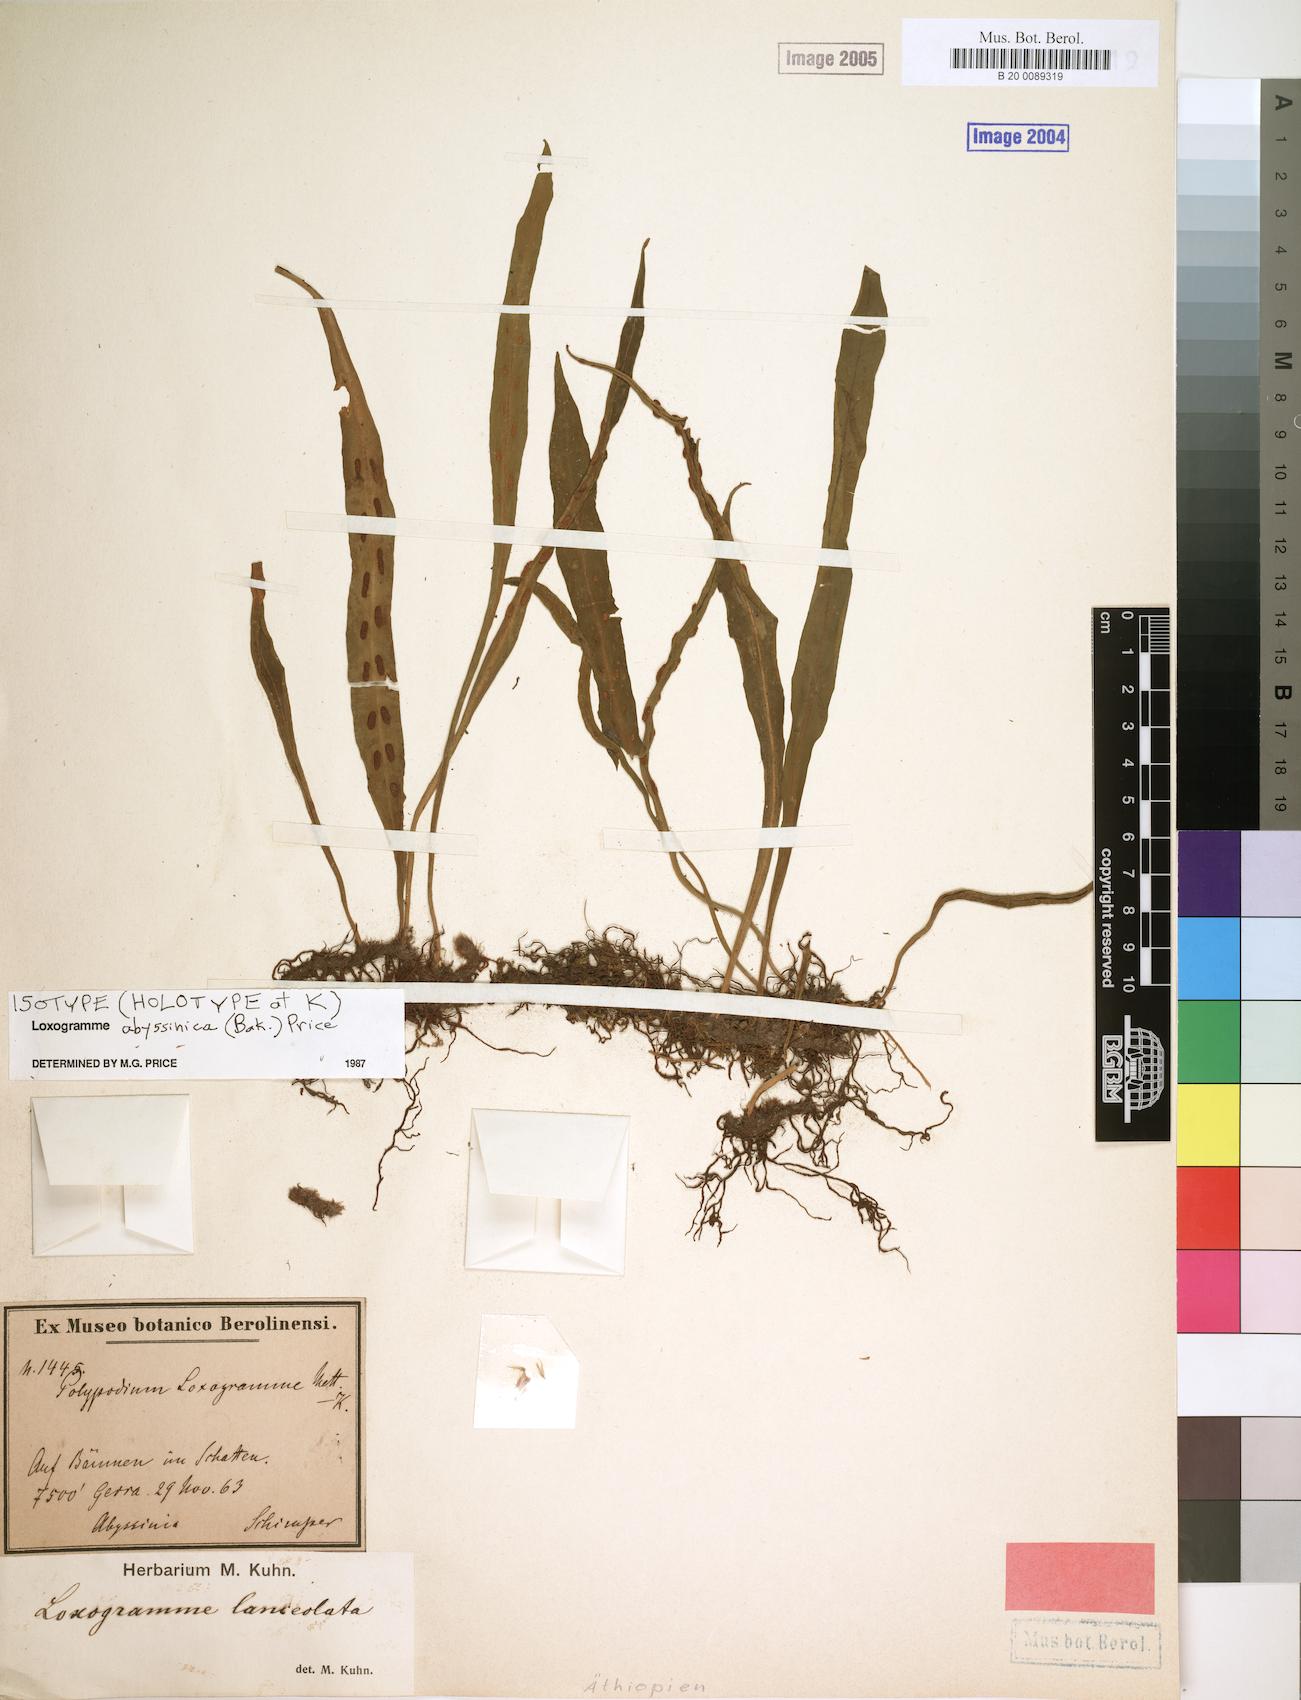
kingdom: Plantae
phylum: Tracheophyta
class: Polypodiopsida
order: Polypodiales
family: Polypodiaceae
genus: Loxogramme
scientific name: Loxogramme abyssinica
